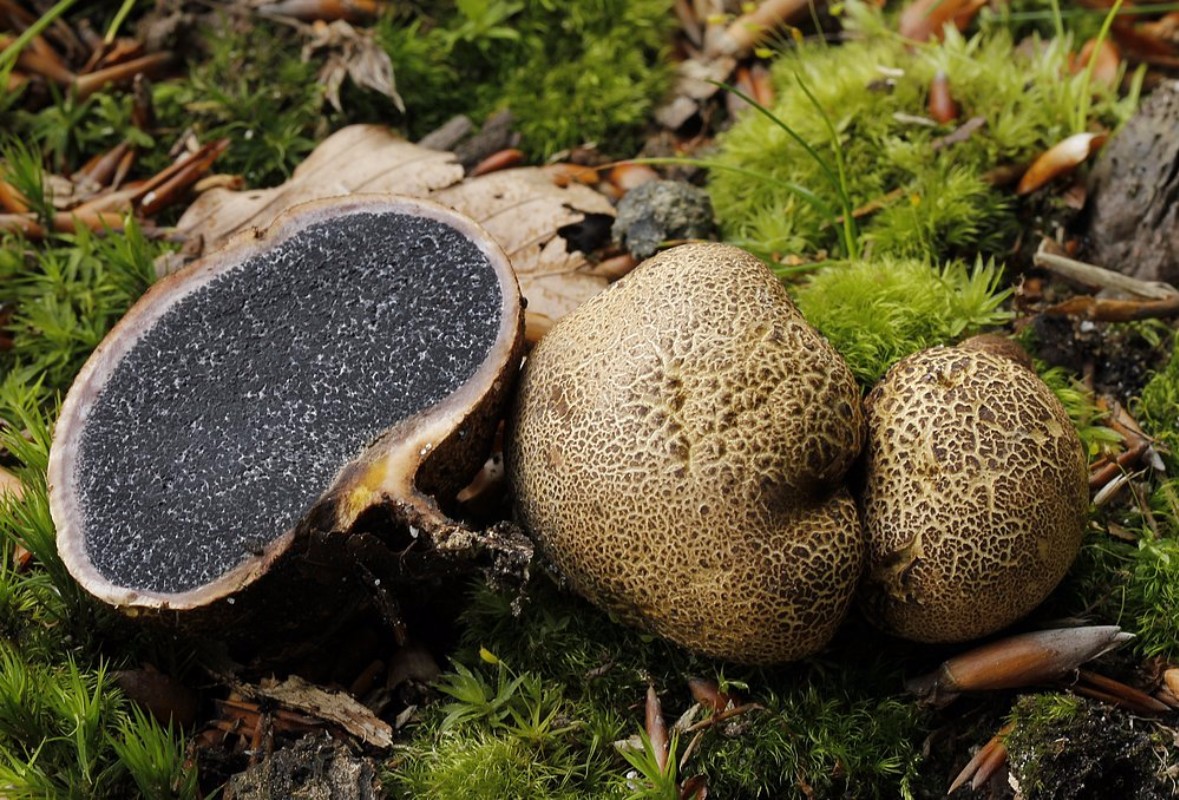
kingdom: Fungi
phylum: Basidiomycota
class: Agaricomycetes
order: Boletales
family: Sclerodermataceae
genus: Scleroderma
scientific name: Scleroderma citrinum
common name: almindelig bruskbold
